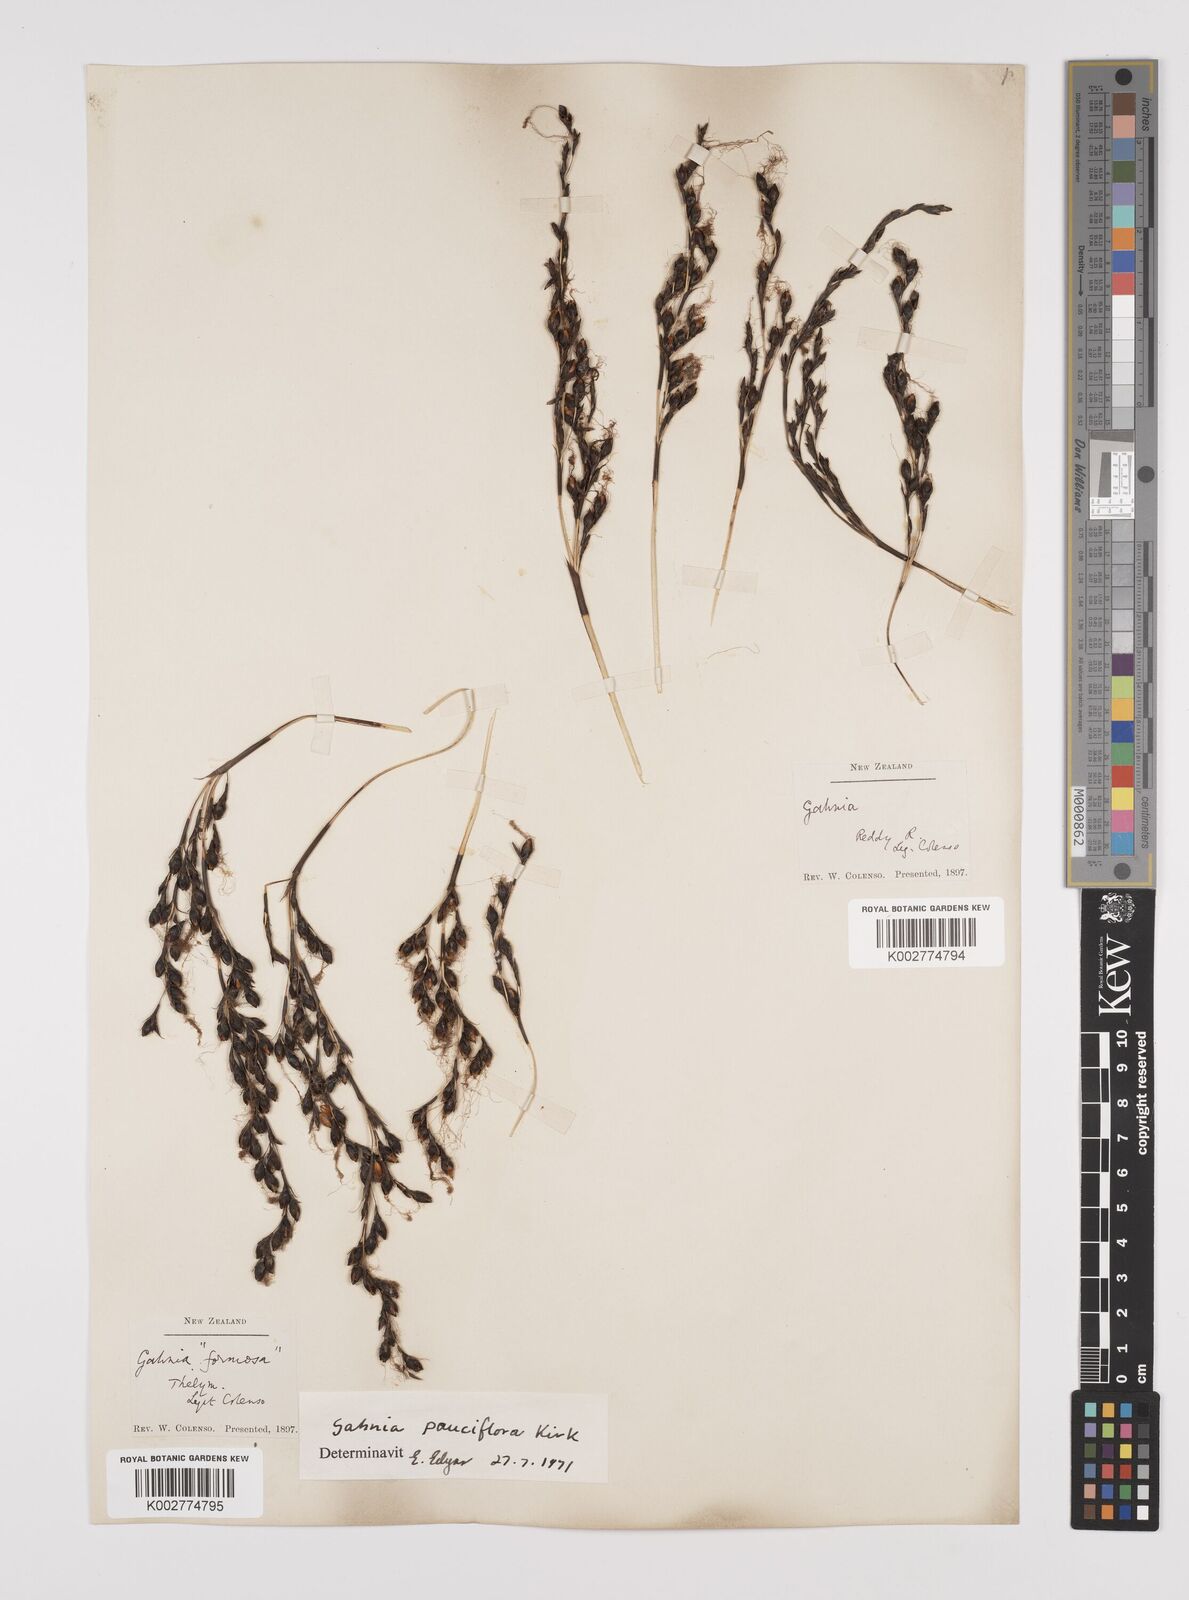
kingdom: Plantae
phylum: Tracheophyta
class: Liliopsida
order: Poales
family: Cyperaceae
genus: Gahnia
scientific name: Gahnia pauciflora
